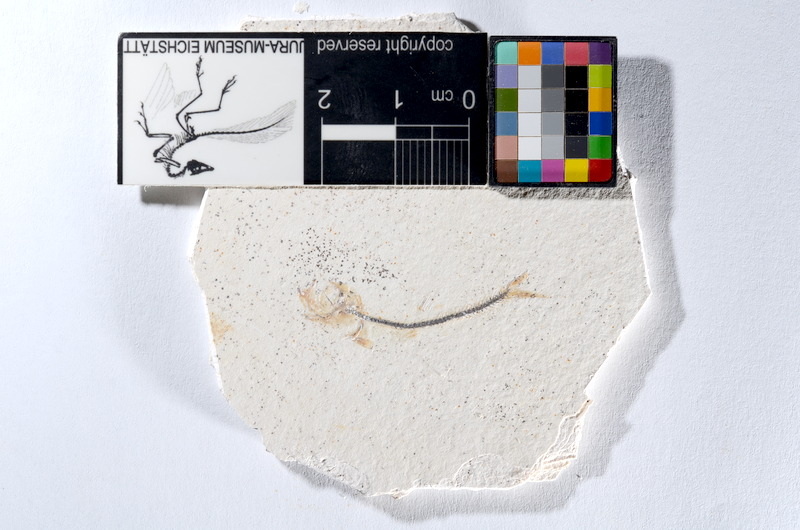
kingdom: Animalia
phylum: Chordata
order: Salmoniformes
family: Orthogonikleithridae
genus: Orthogonikleithrus
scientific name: Orthogonikleithrus hoelli
